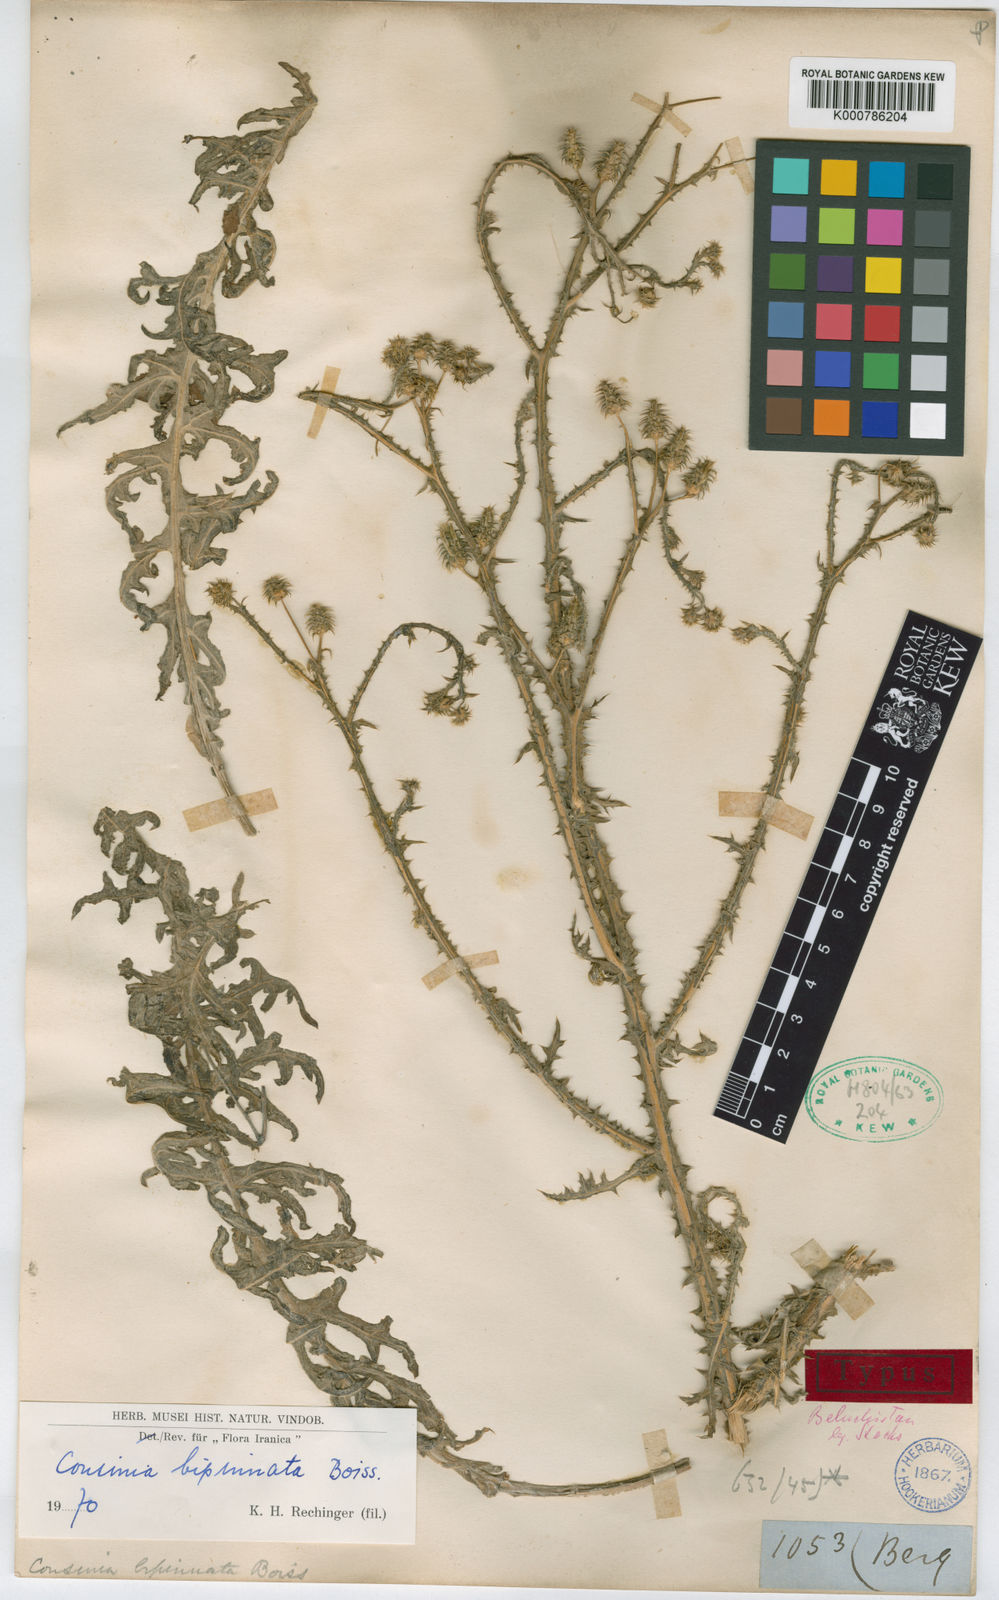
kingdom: Plantae
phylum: Tracheophyta
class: Magnoliopsida
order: Asterales
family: Asteraceae
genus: Cousinia
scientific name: Cousinia bipinnata
